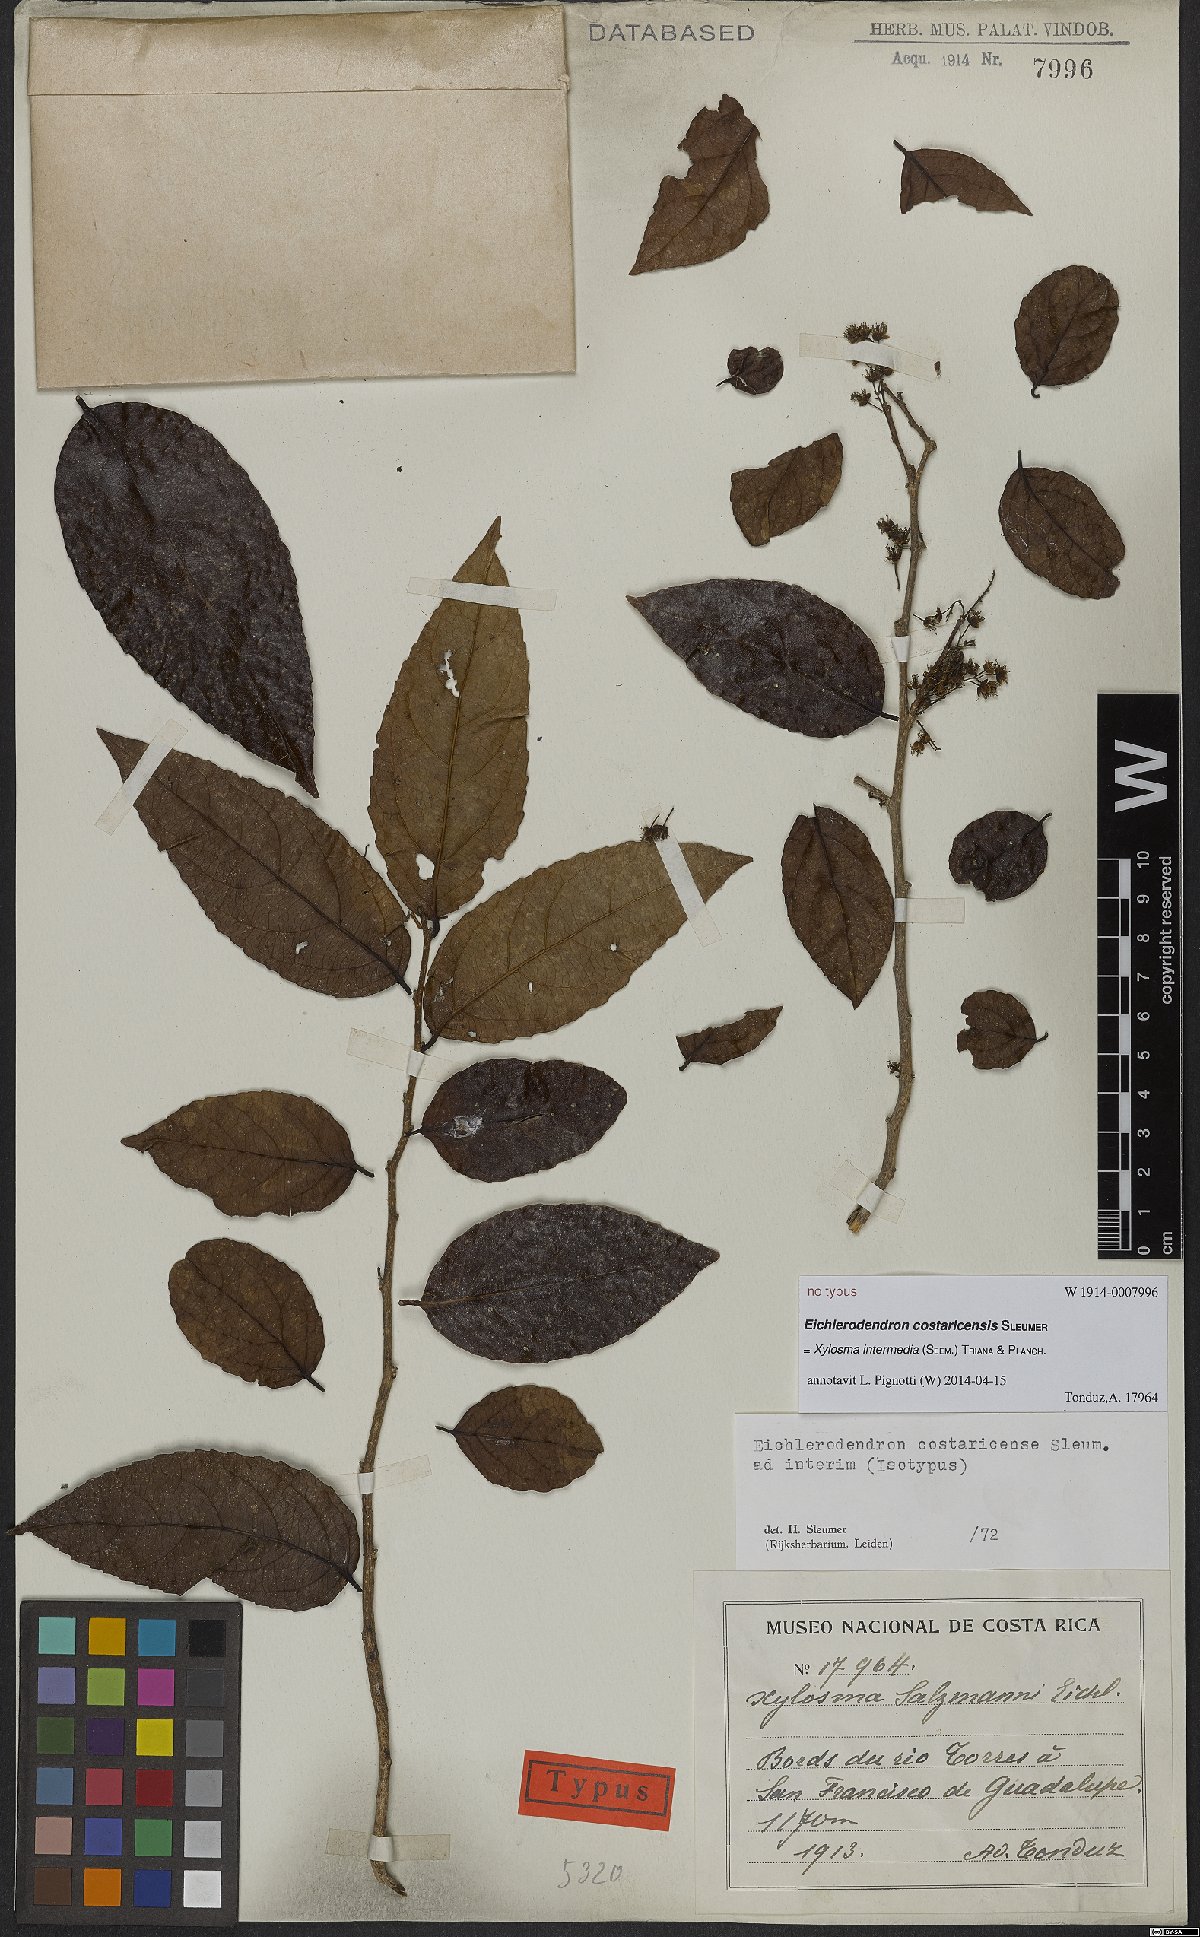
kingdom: Plantae
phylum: Tracheophyta
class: Magnoliopsida
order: Malpighiales
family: Salicaceae
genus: Xylosma
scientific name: Xylosma intermedia
